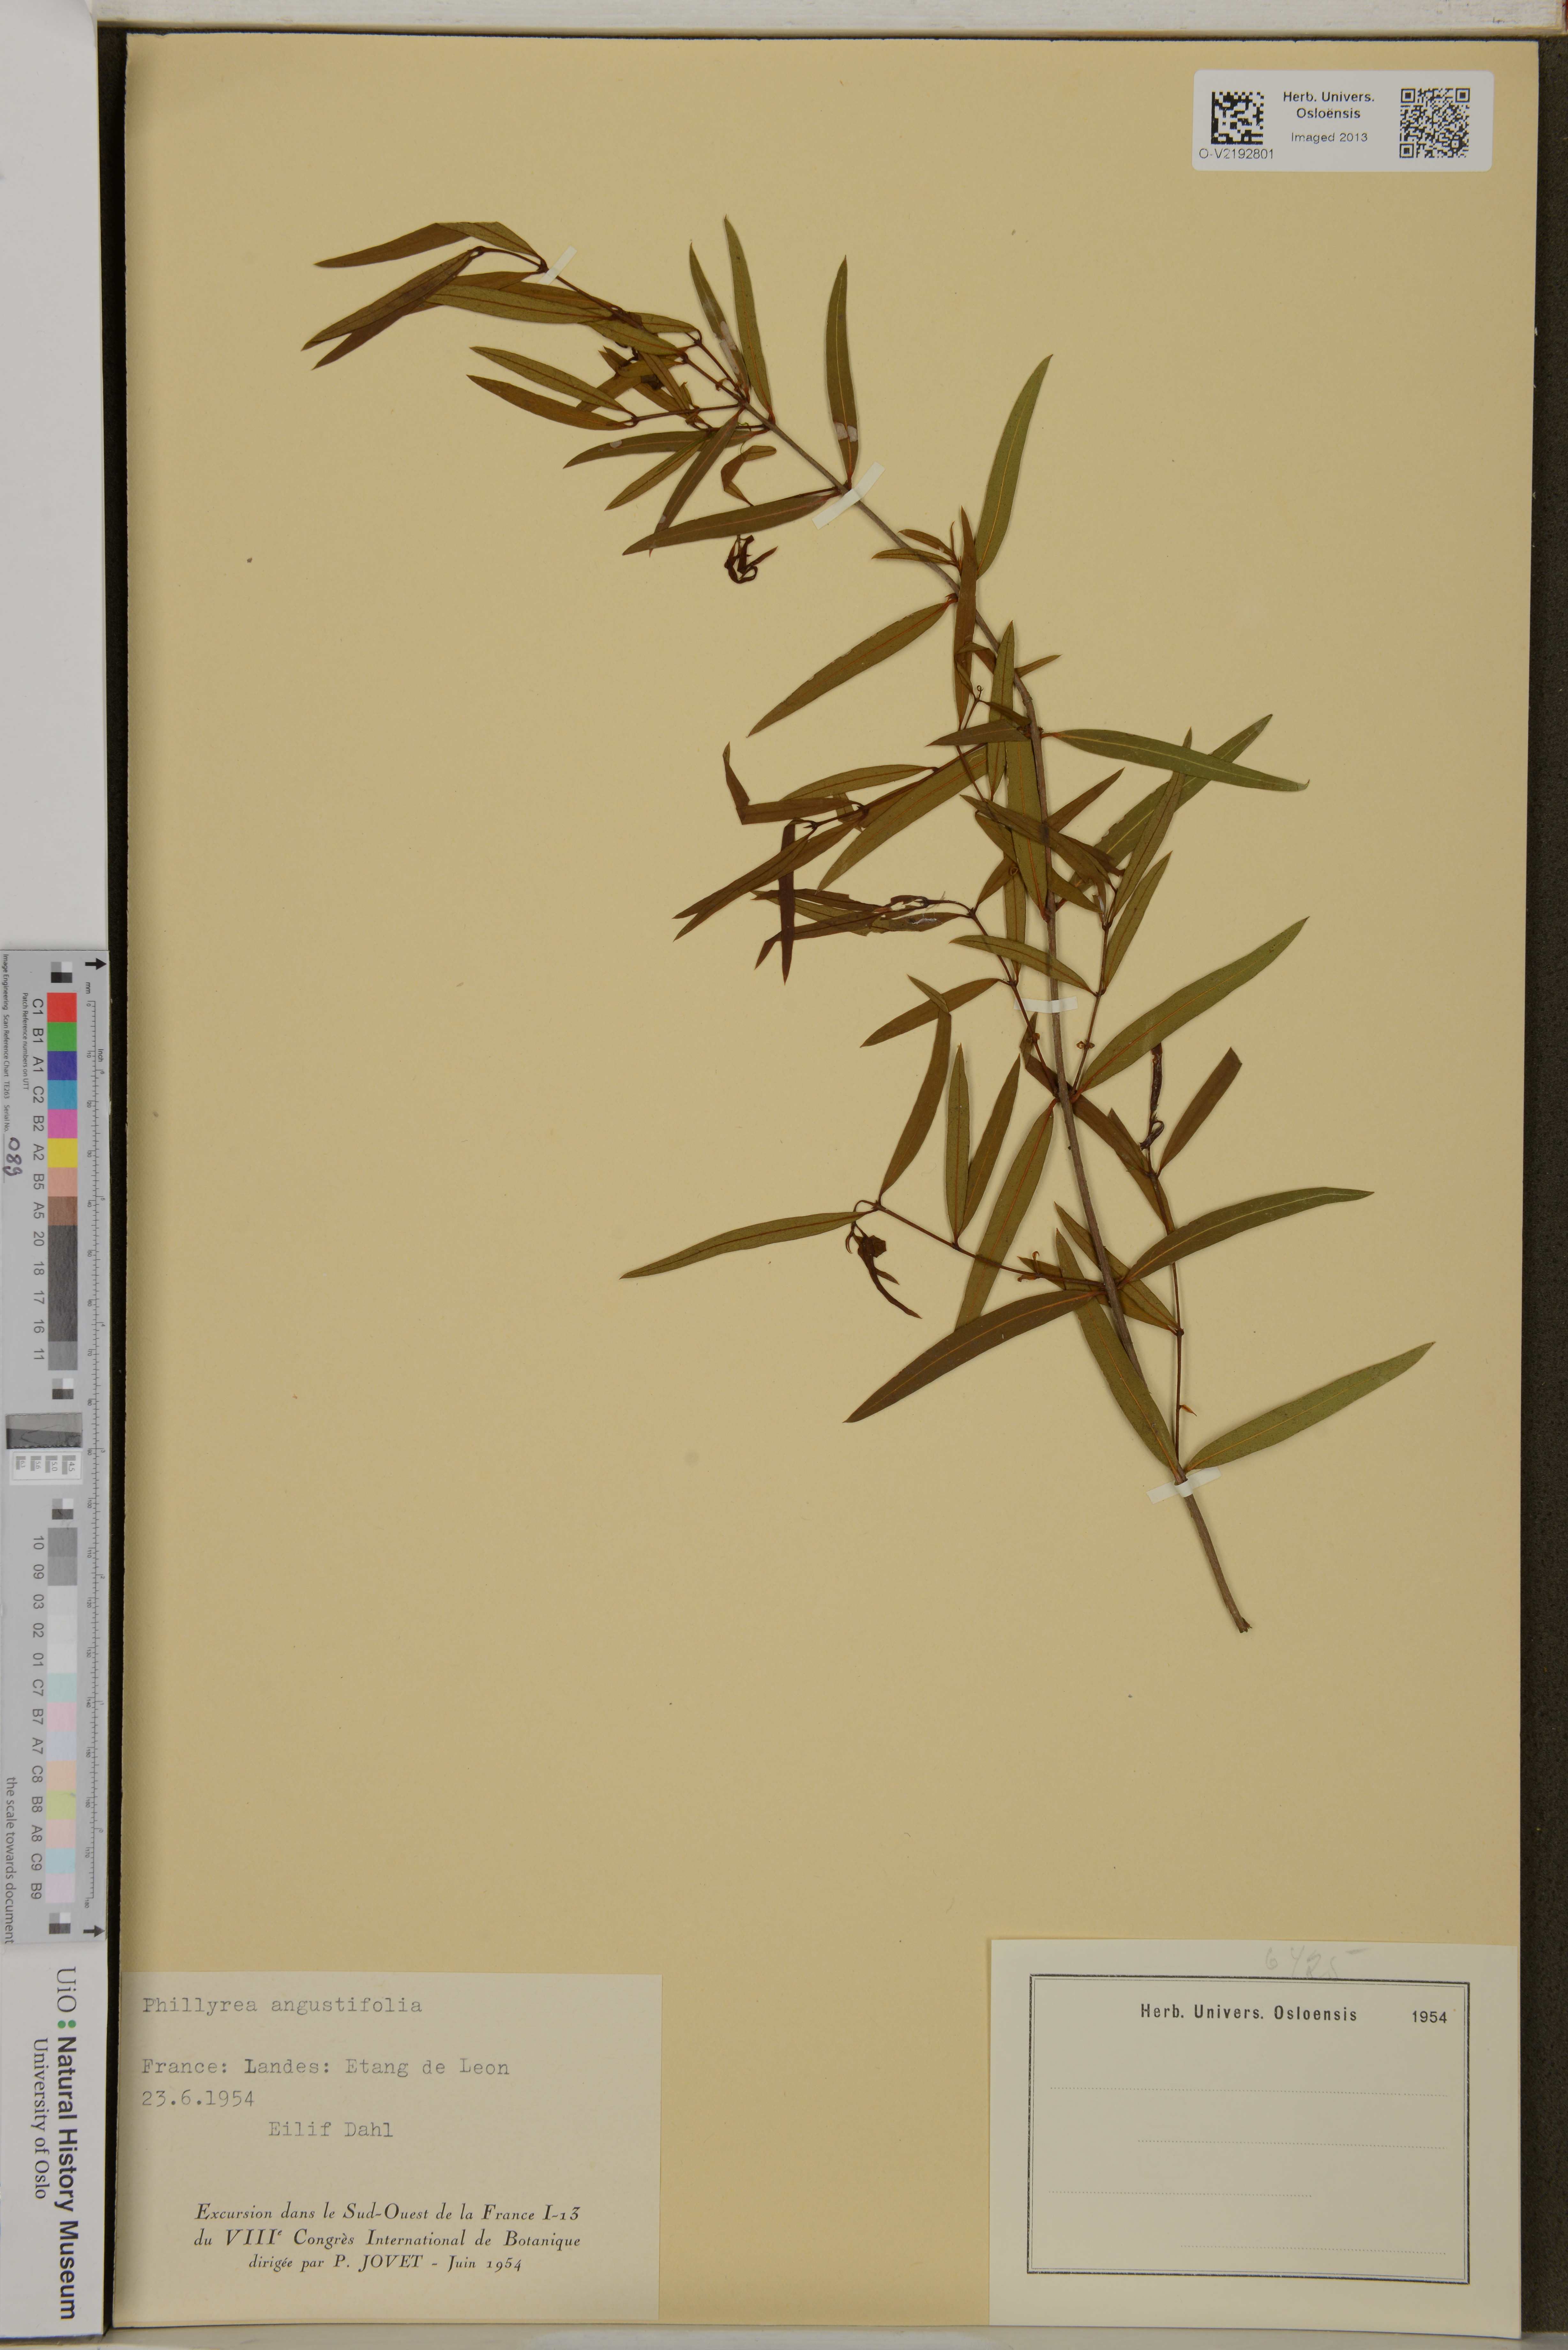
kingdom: Plantae
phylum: Tracheophyta
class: Magnoliopsida
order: Lamiales
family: Oleaceae
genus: Phillyrea
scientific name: Phillyrea angustifolia
